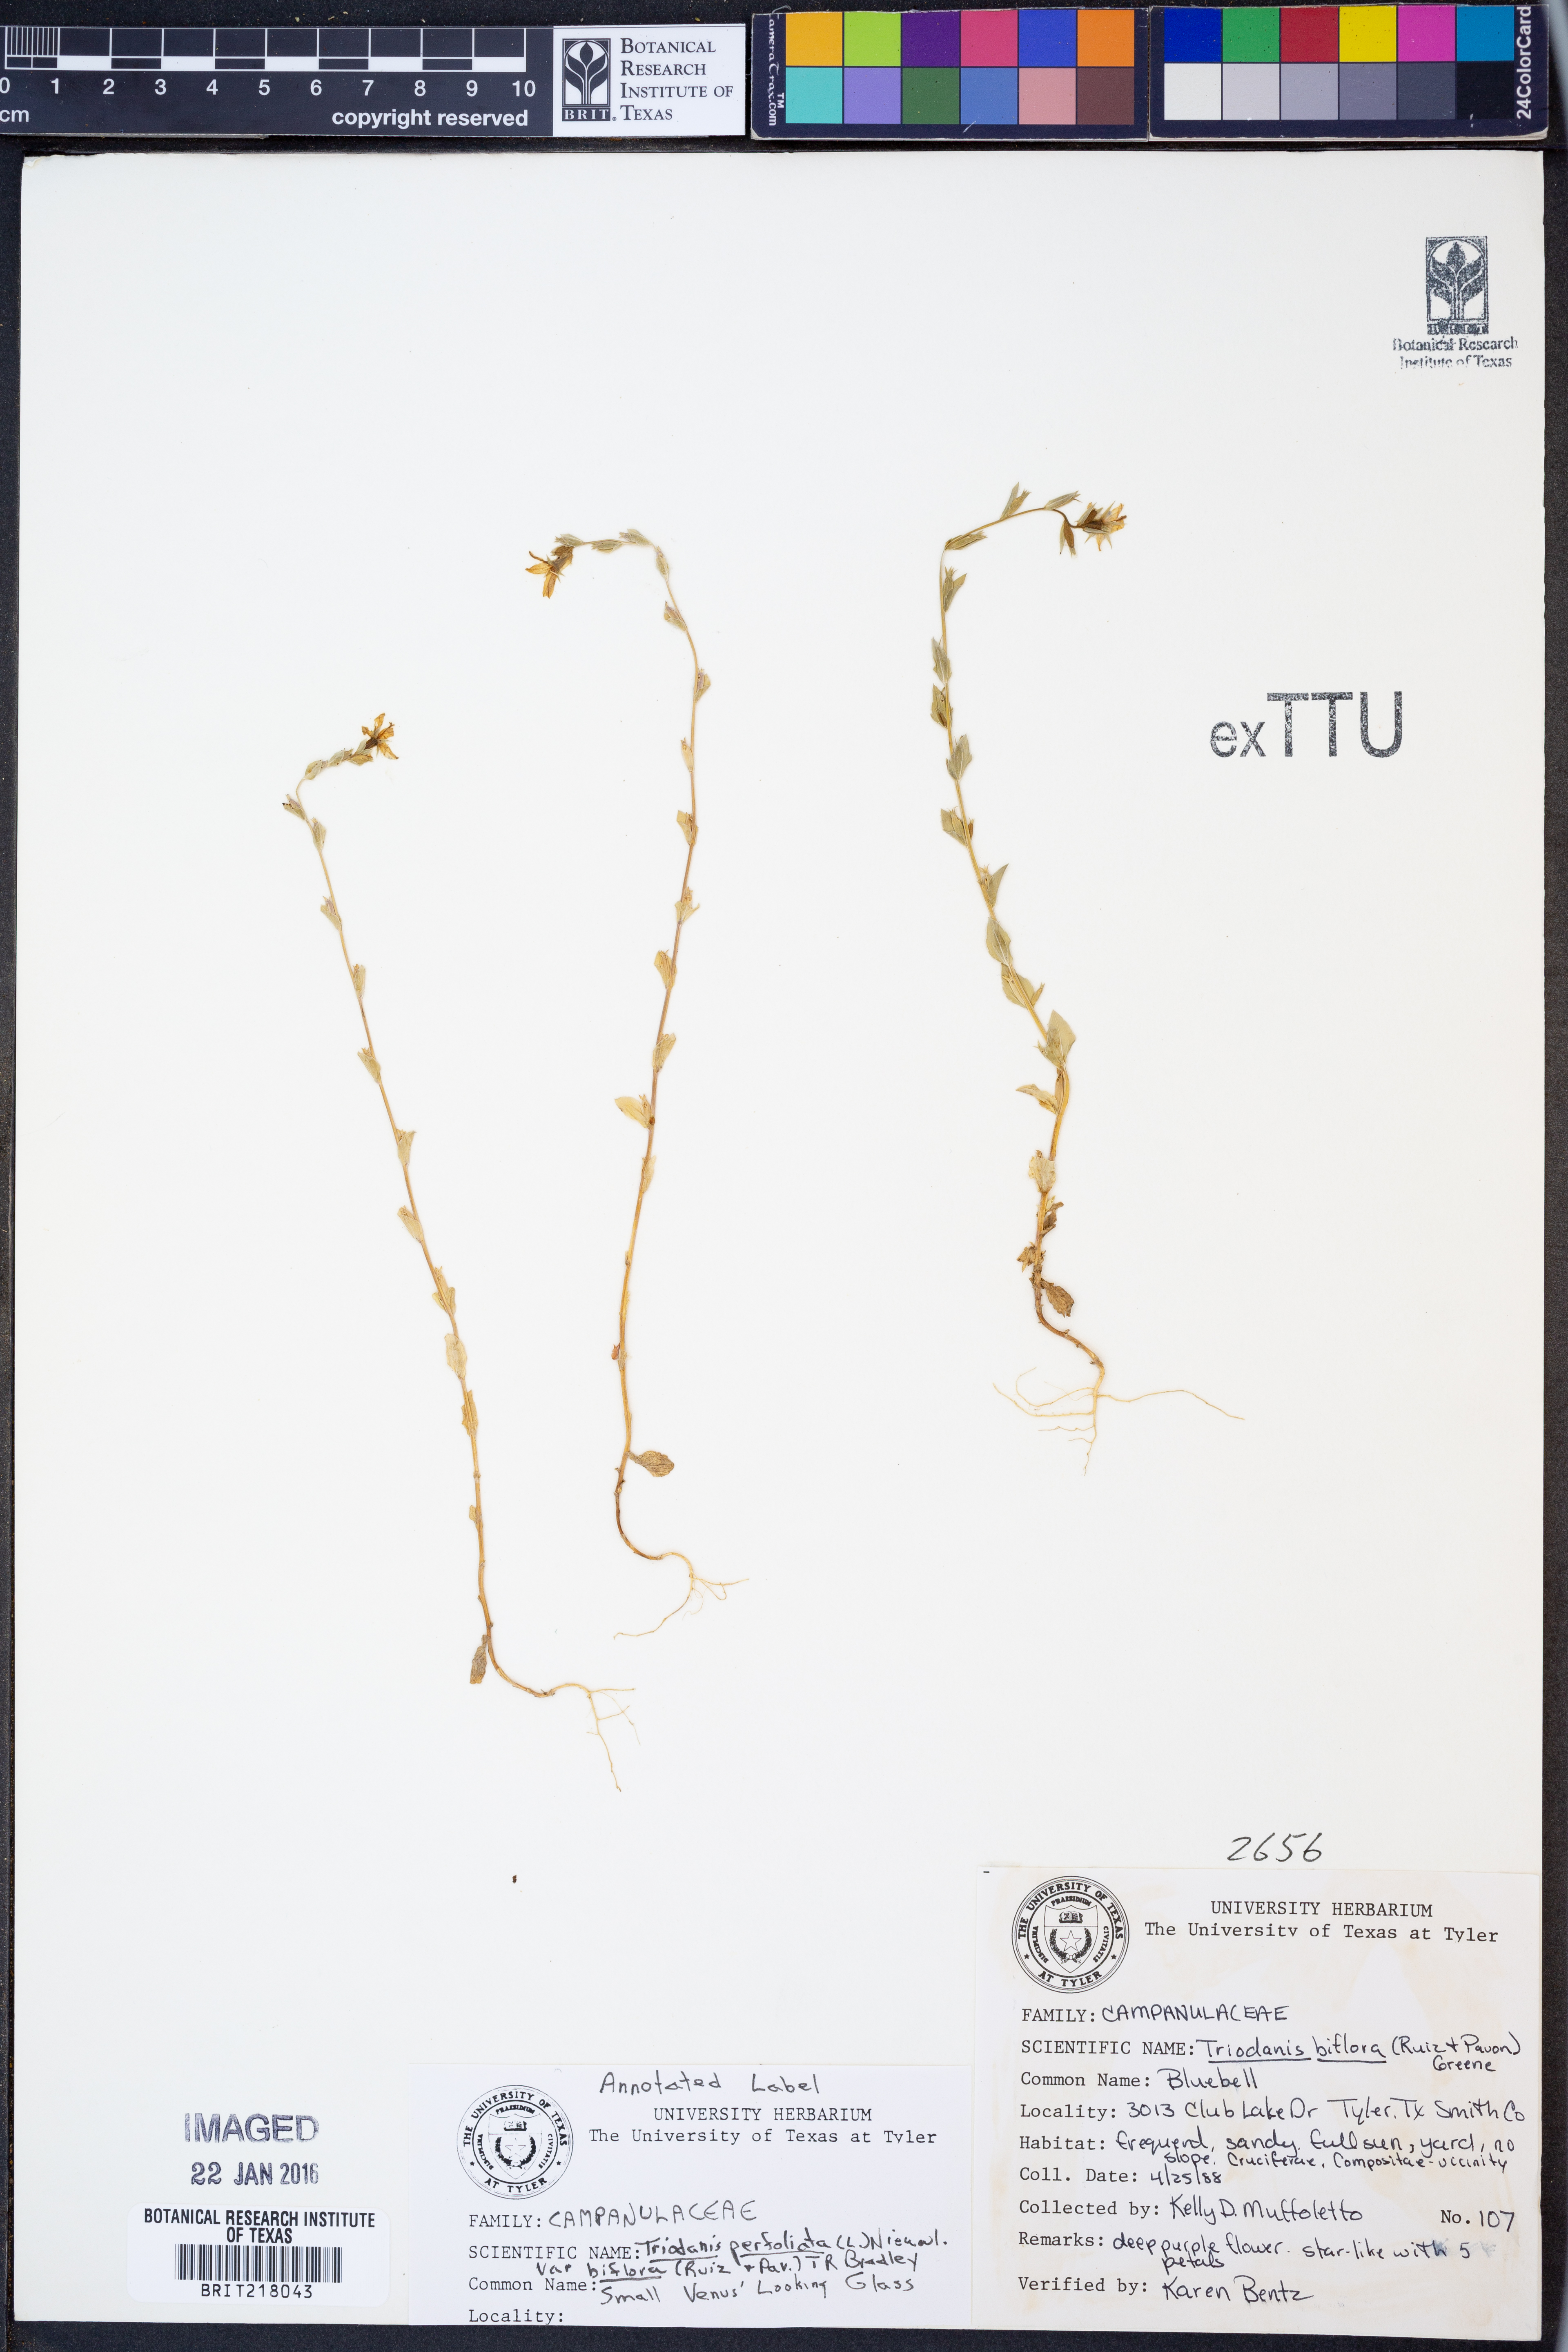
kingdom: Plantae
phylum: Tracheophyta
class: Magnoliopsida
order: Asterales
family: Campanulaceae
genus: Triodanis
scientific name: Triodanis perfoliata
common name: Clasping venus' looking-glass
